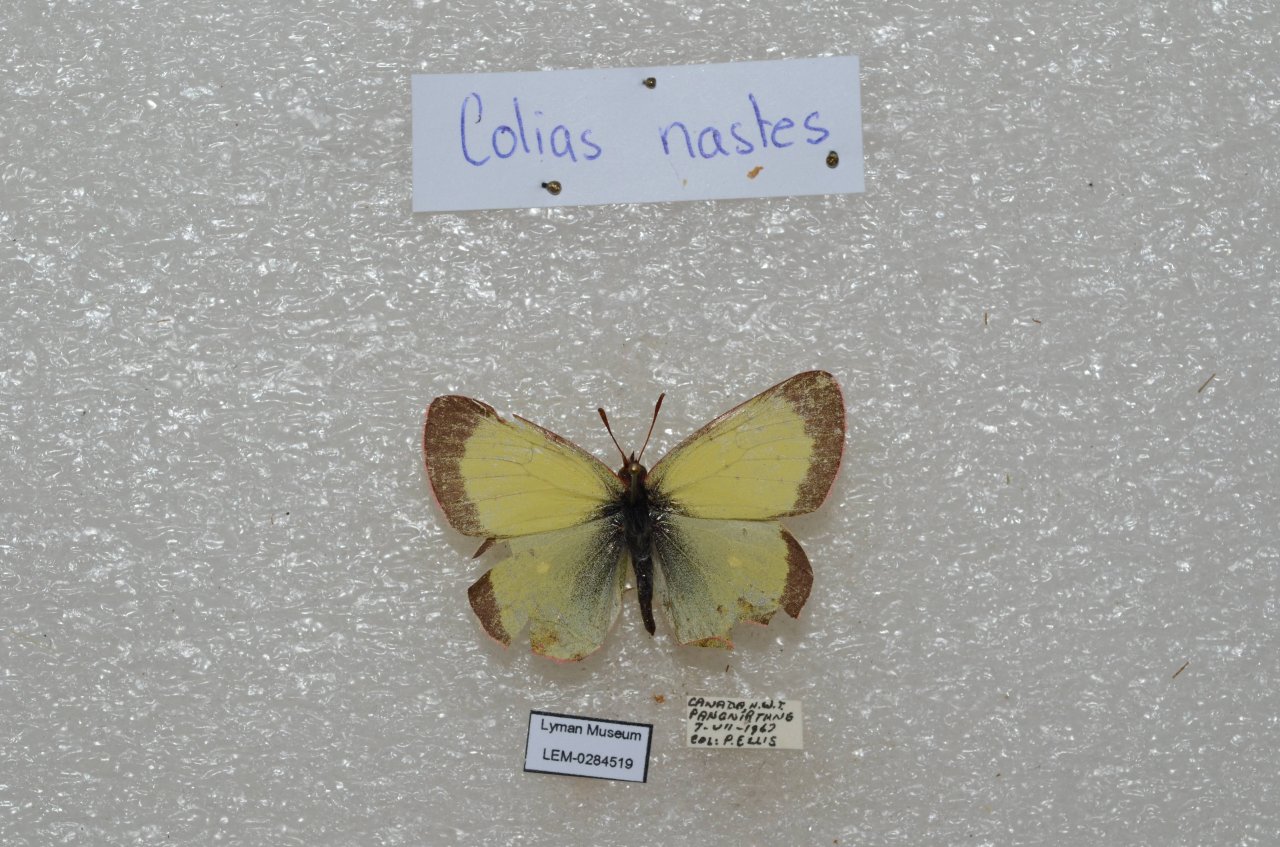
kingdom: Animalia
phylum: Arthropoda
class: Insecta
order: Lepidoptera
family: Pieridae
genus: Colias
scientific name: Colias palaeno
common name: Chippewa Sulphur
